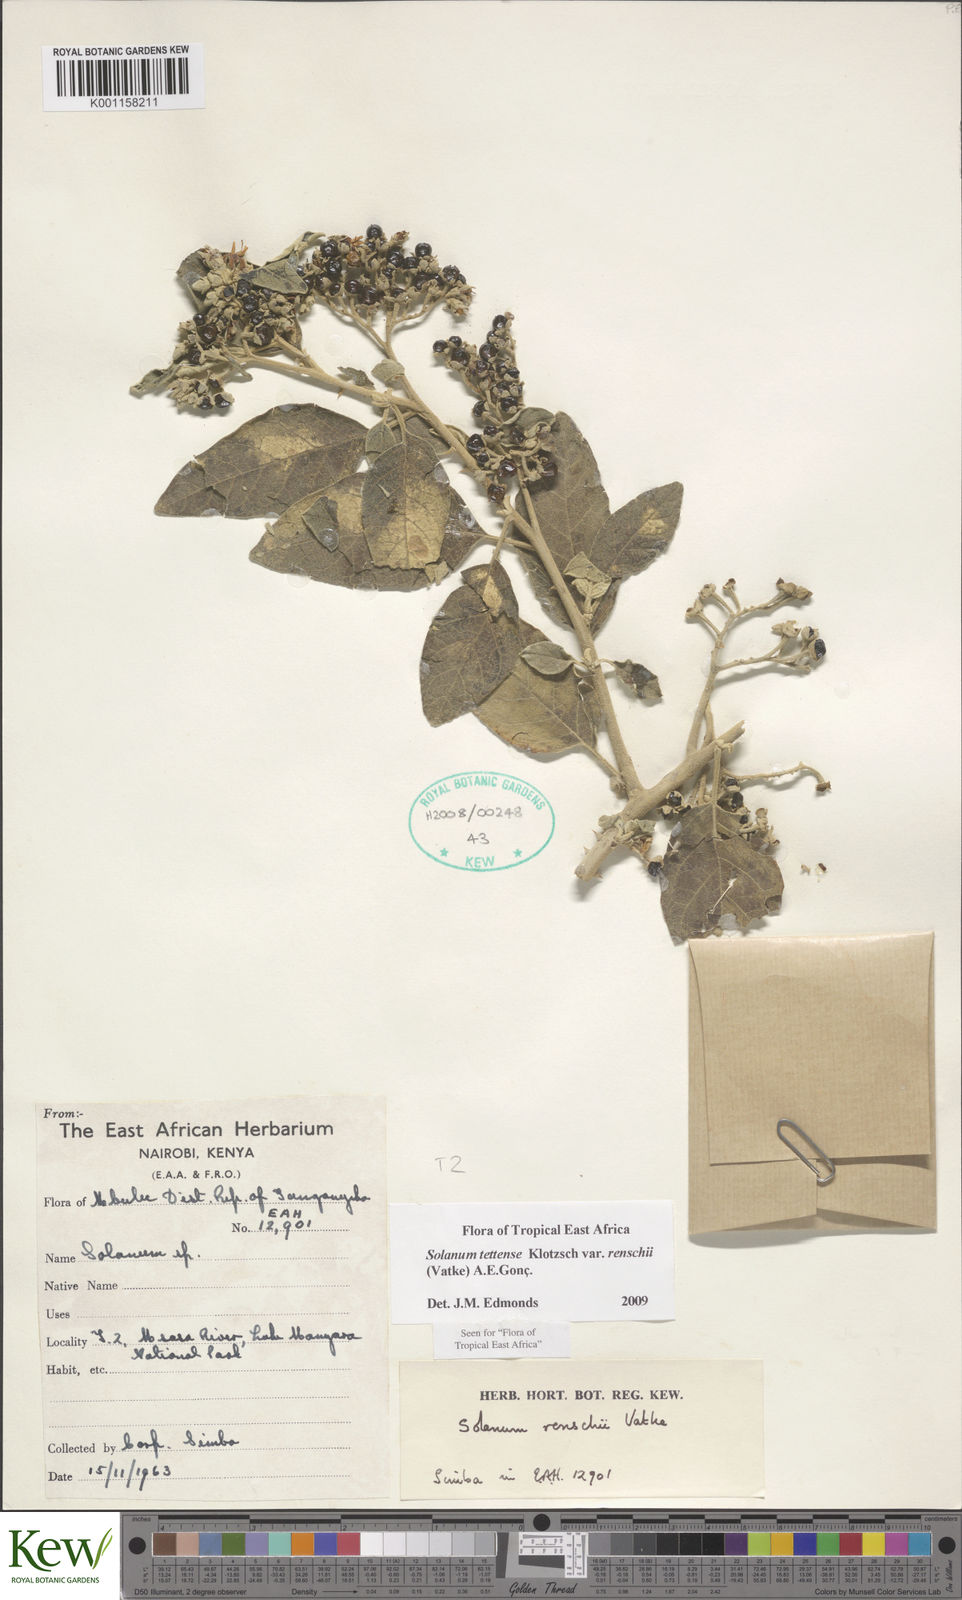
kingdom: Plantae
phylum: Tracheophyta
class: Magnoliopsida
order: Solanales
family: Solanaceae
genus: Solanum
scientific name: Solanum tettense
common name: Mozambique bitter apple
